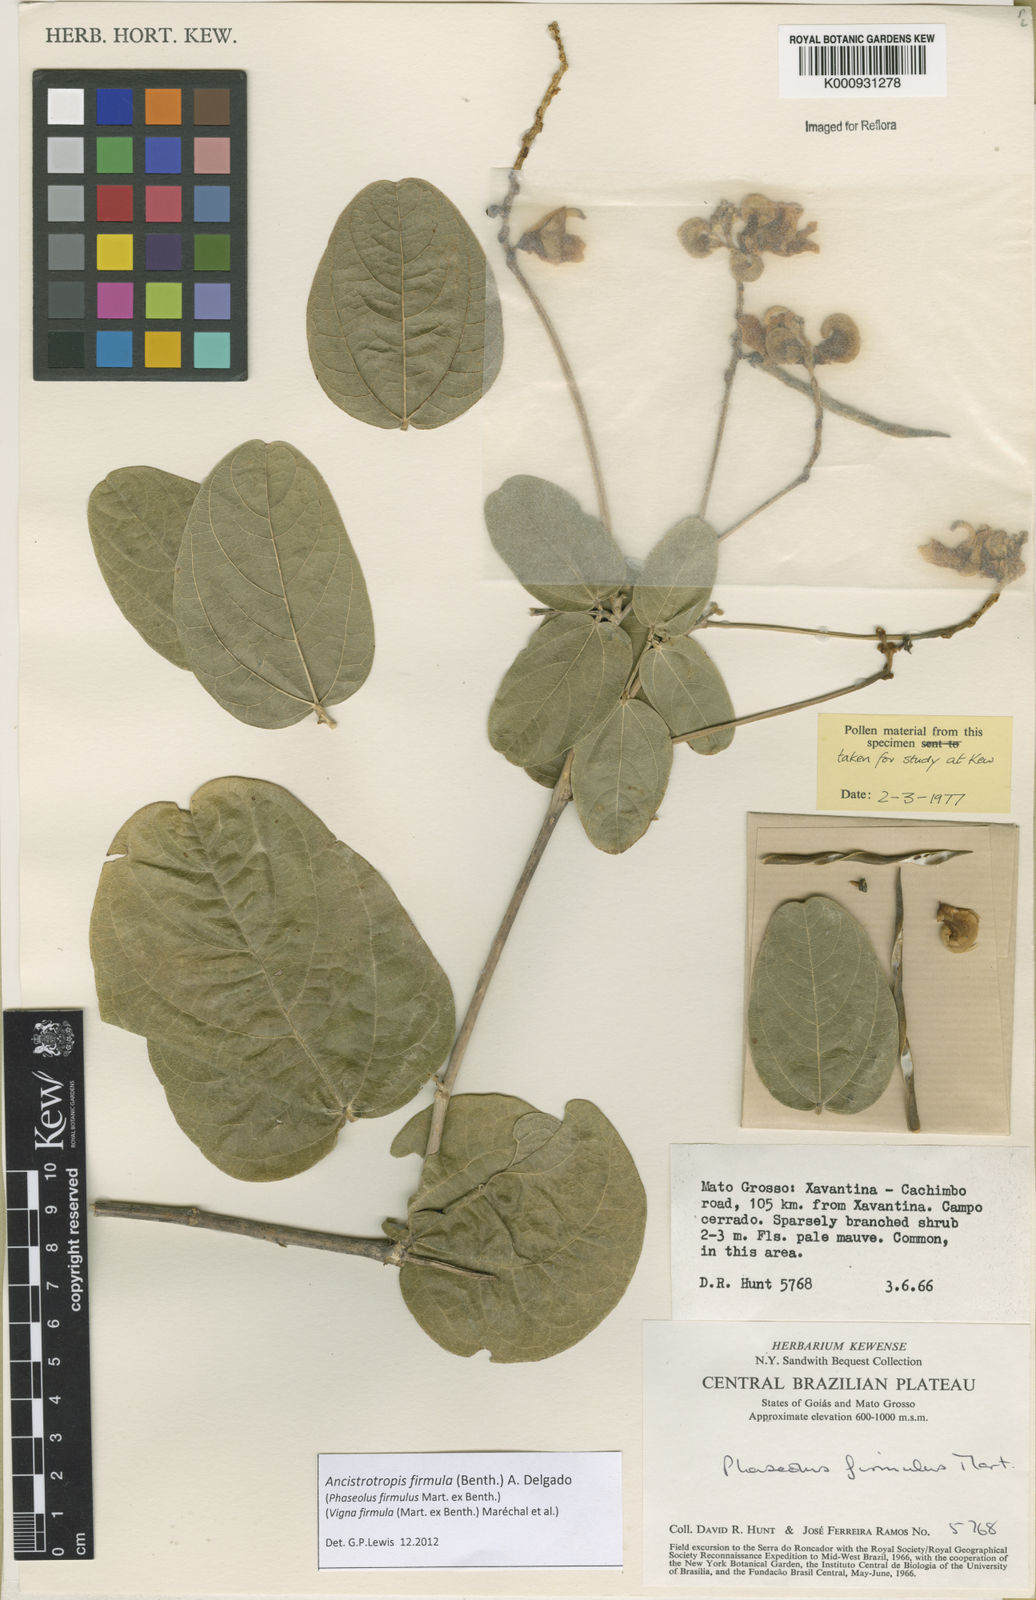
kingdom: Plantae
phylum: Tracheophyta
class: Magnoliopsida
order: Fabales
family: Fabaceae
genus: Ancistrotropis
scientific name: Ancistrotropis firmula
